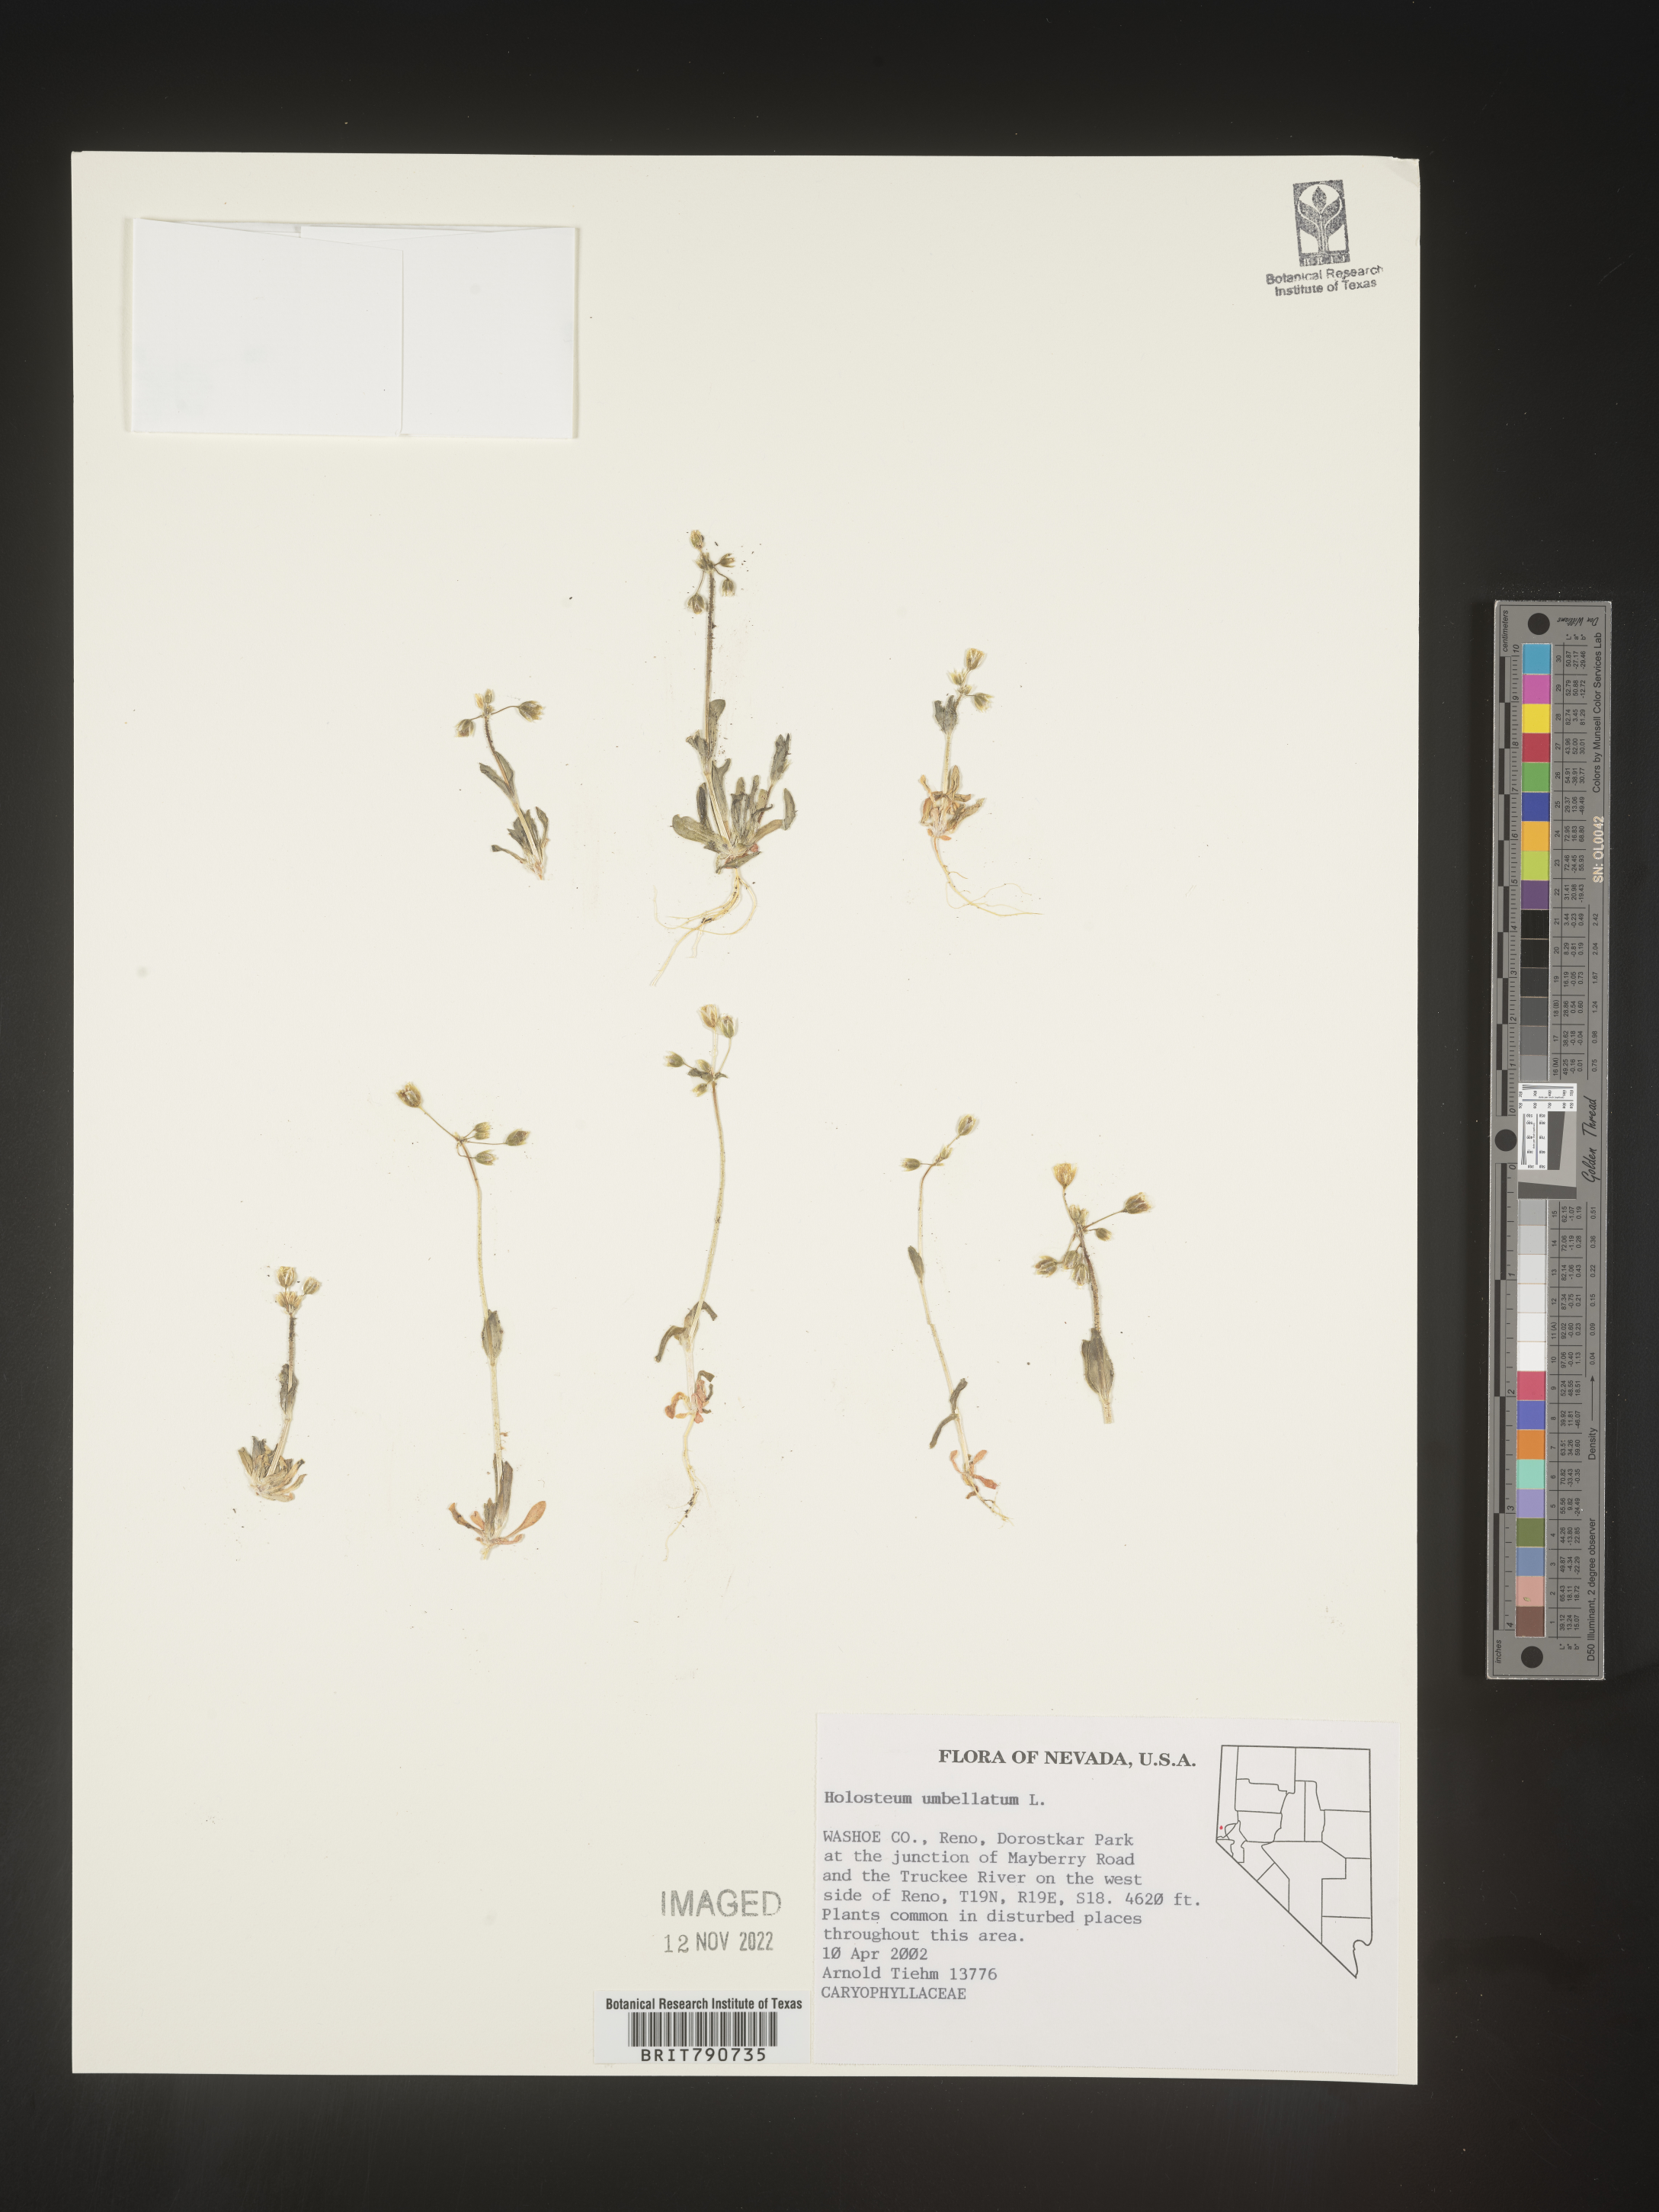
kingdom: Plantae
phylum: Tracheophyta
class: Magnoliopsida
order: Caryophyllales
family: Caryophyllaceae
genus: Holosteum
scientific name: Holosteum
